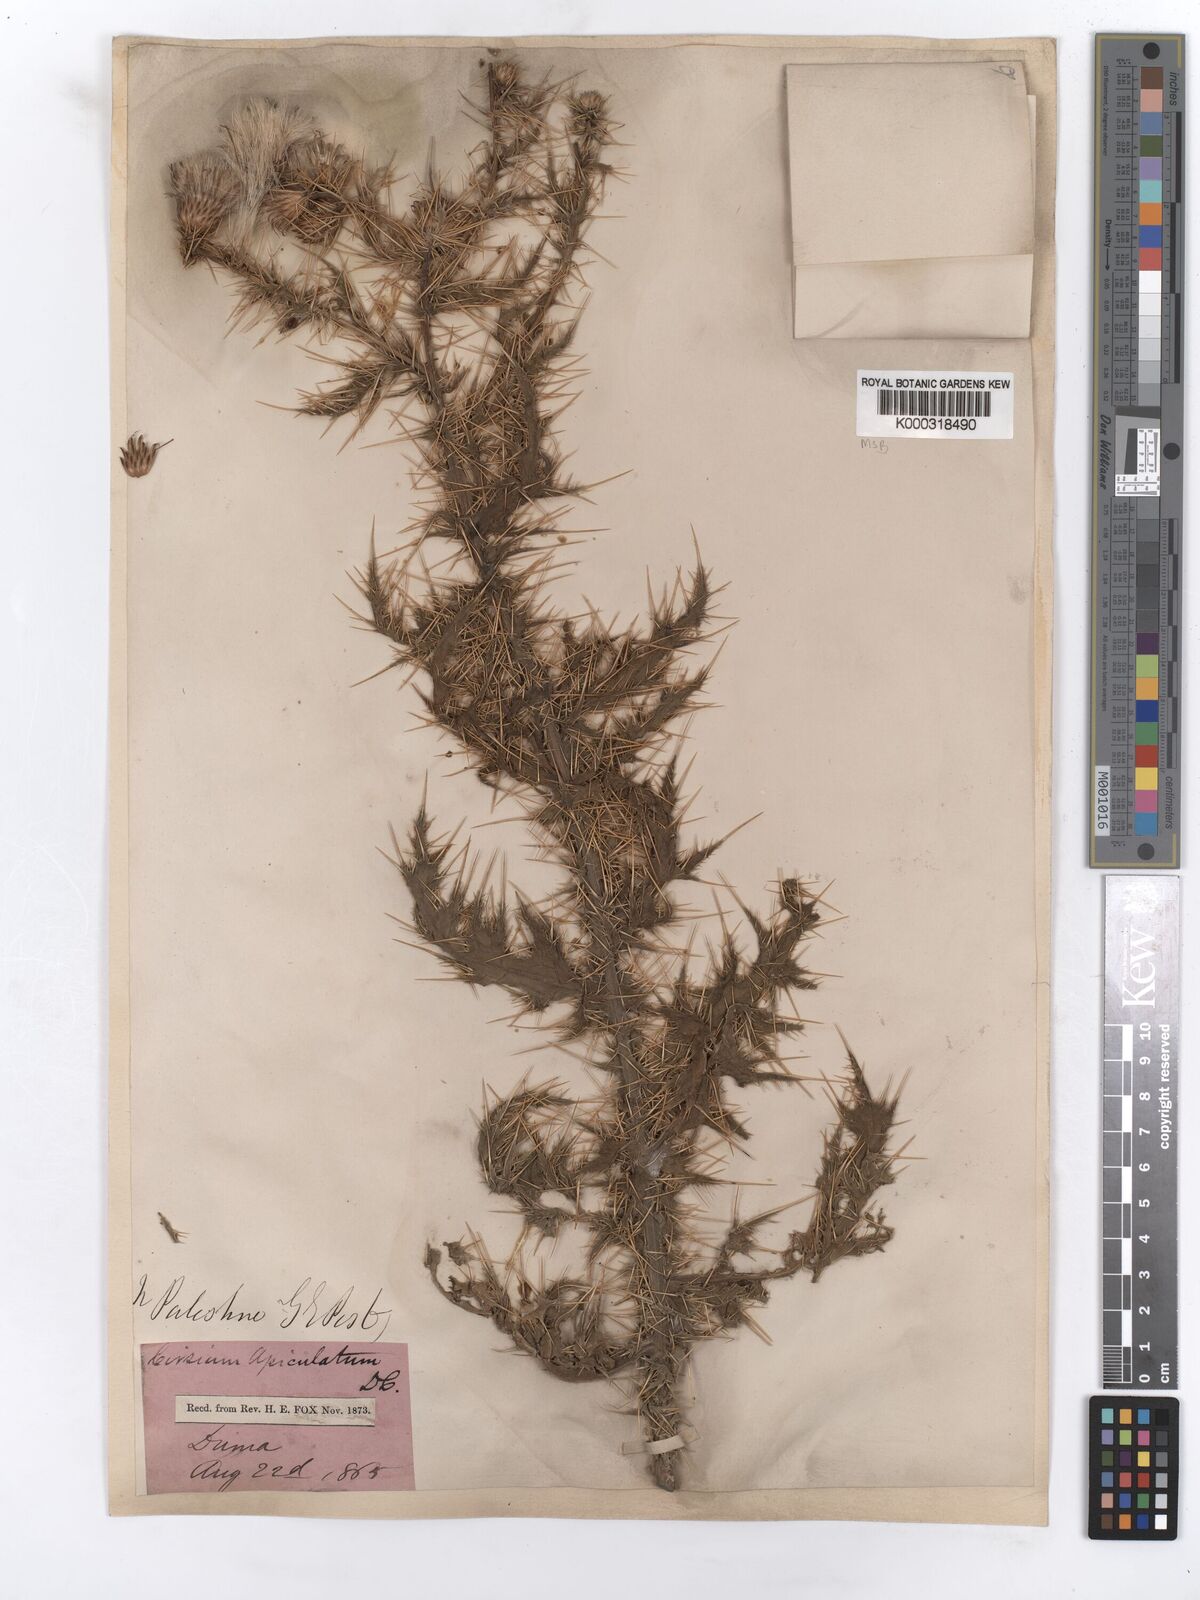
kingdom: Plantae
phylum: Tracheophyta
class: Magnoliopsida
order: Asterales
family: Asteraceae
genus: Cirsium
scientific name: Cirsium libanoticum
